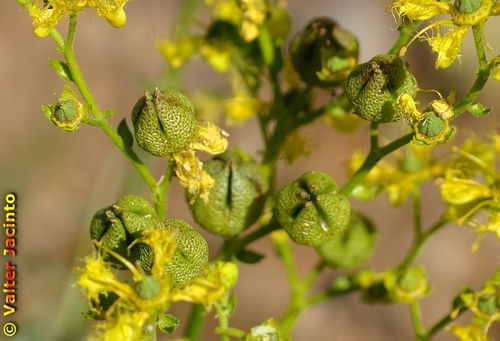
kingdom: Plantae
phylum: Tracheophyta
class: Magnoliopsida
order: Sapindales
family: Rutaceae
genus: Ruta
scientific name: Ruta angustifolia
